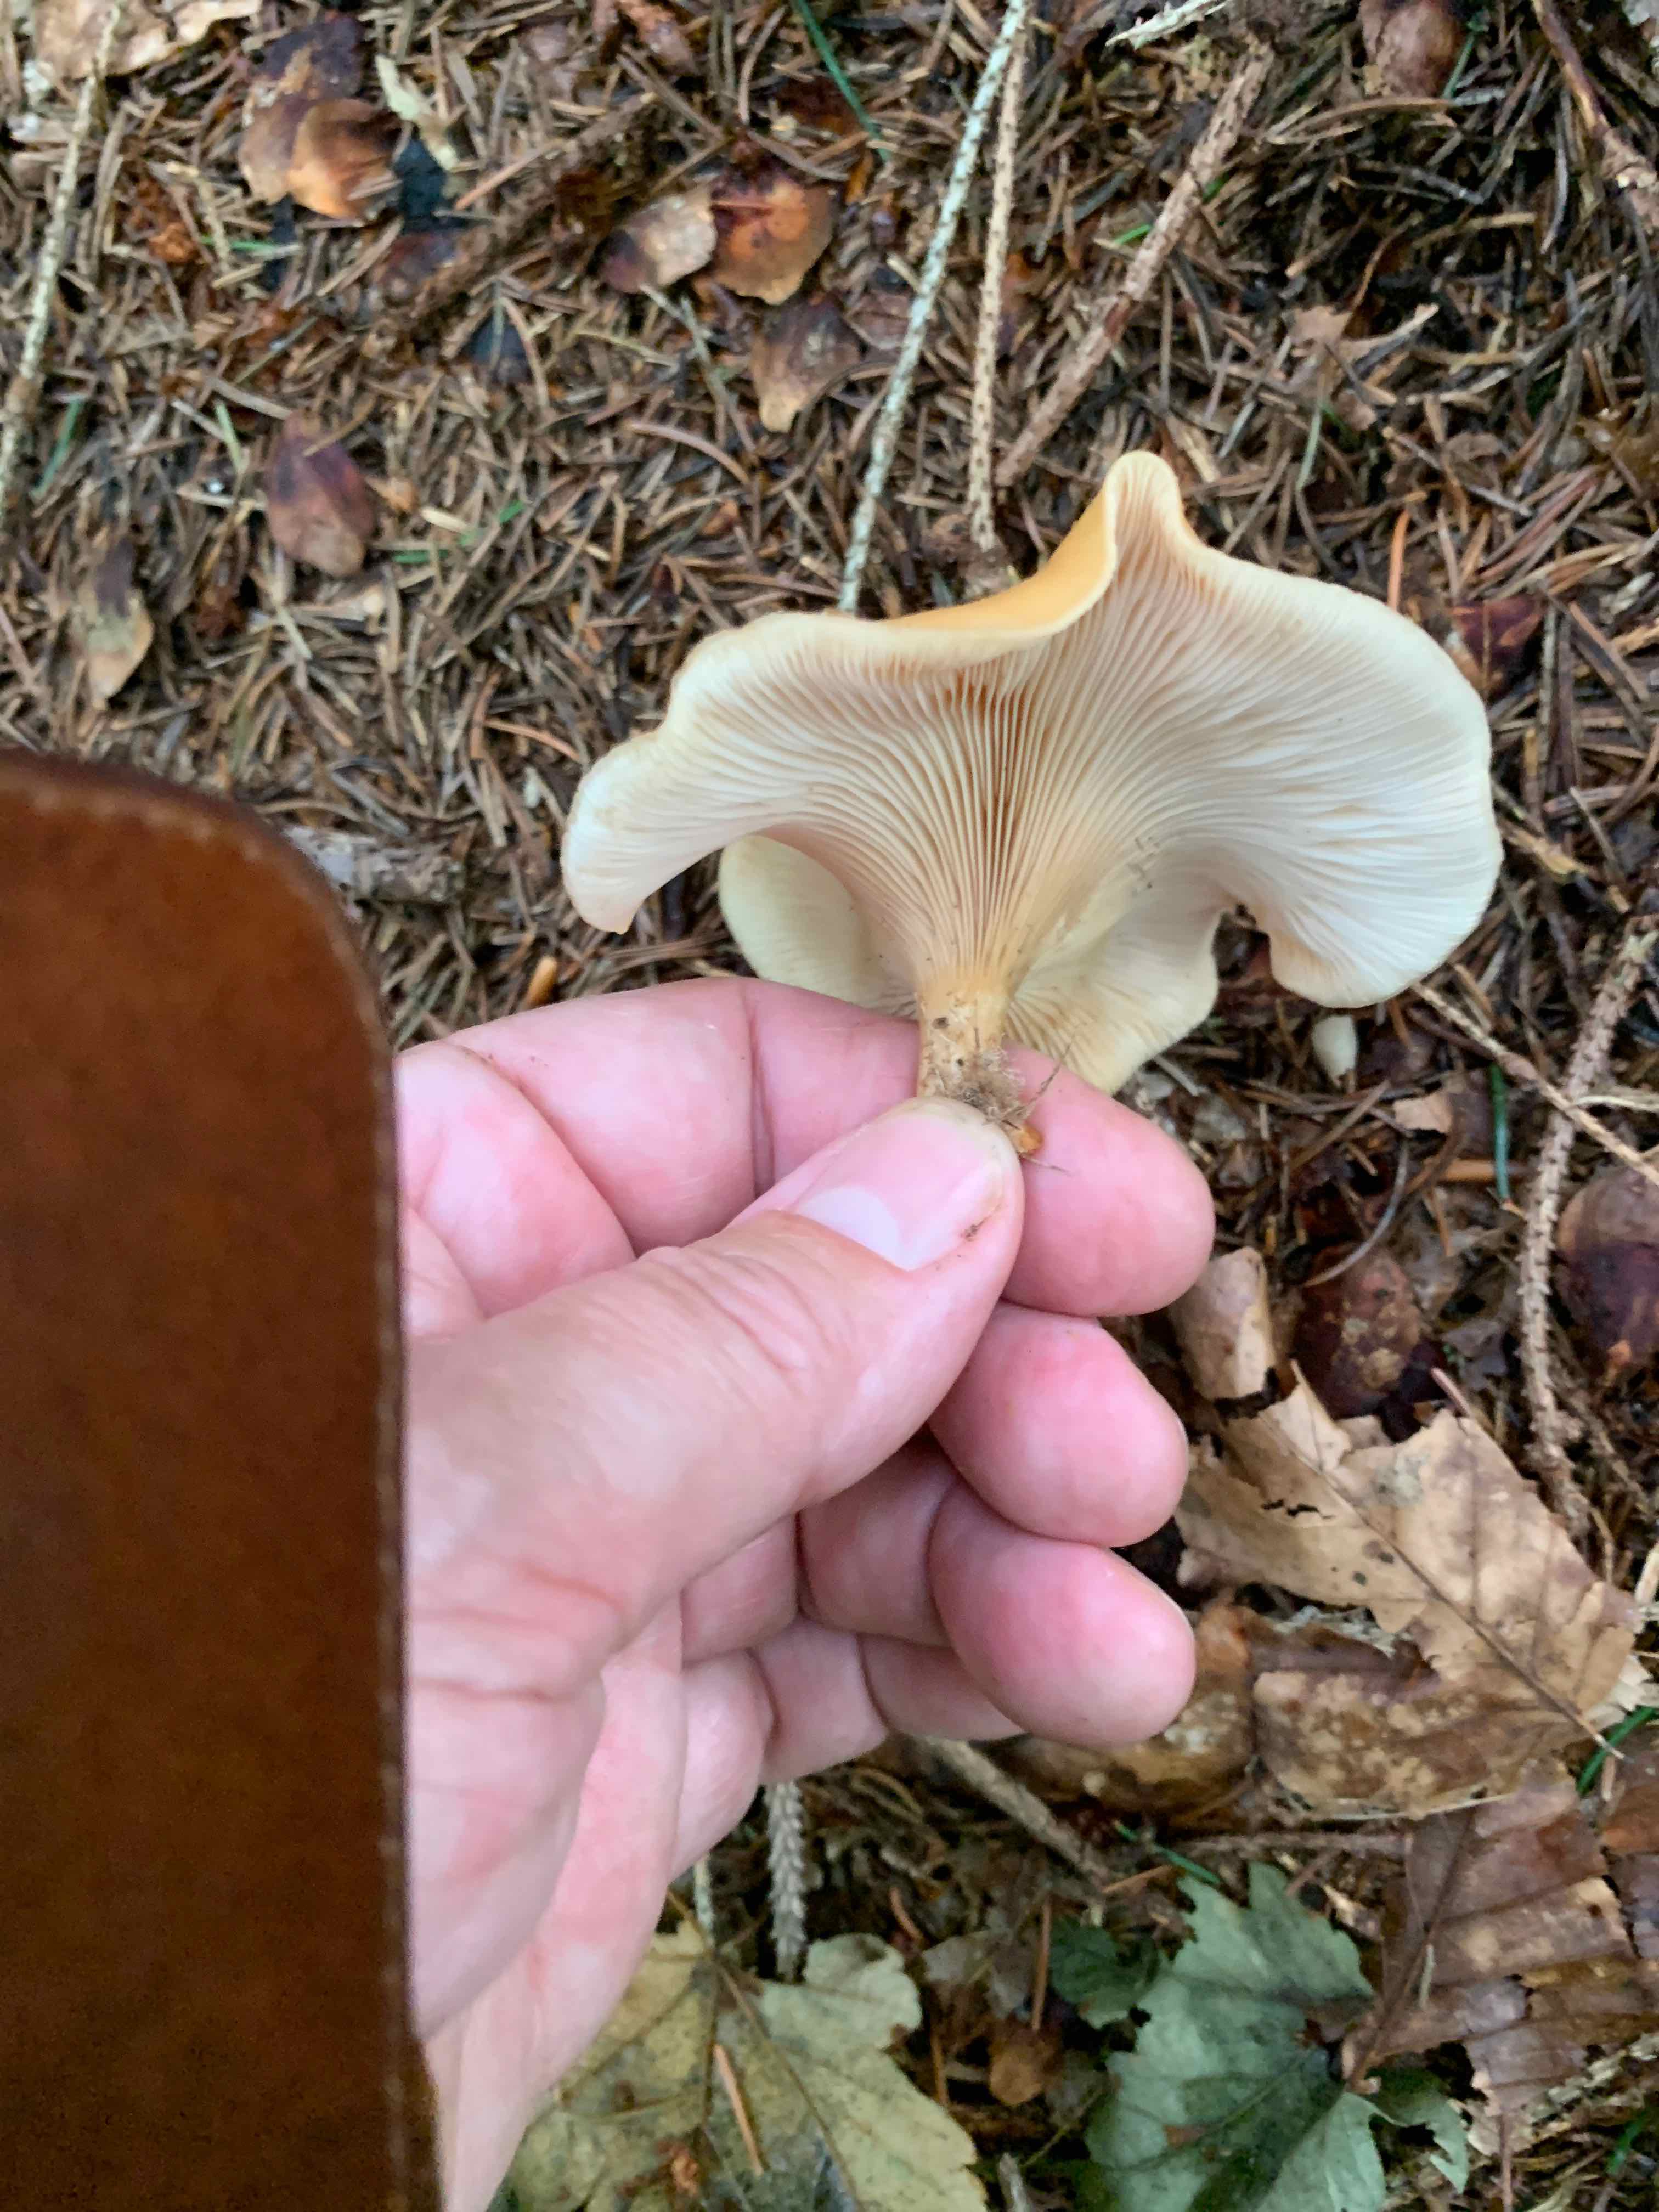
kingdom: Fungi
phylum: Basidiomycota
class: Agaricomycetes
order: Agaricales
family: Tricholomataceae
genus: Paralepista
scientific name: Paralepista flaccida
